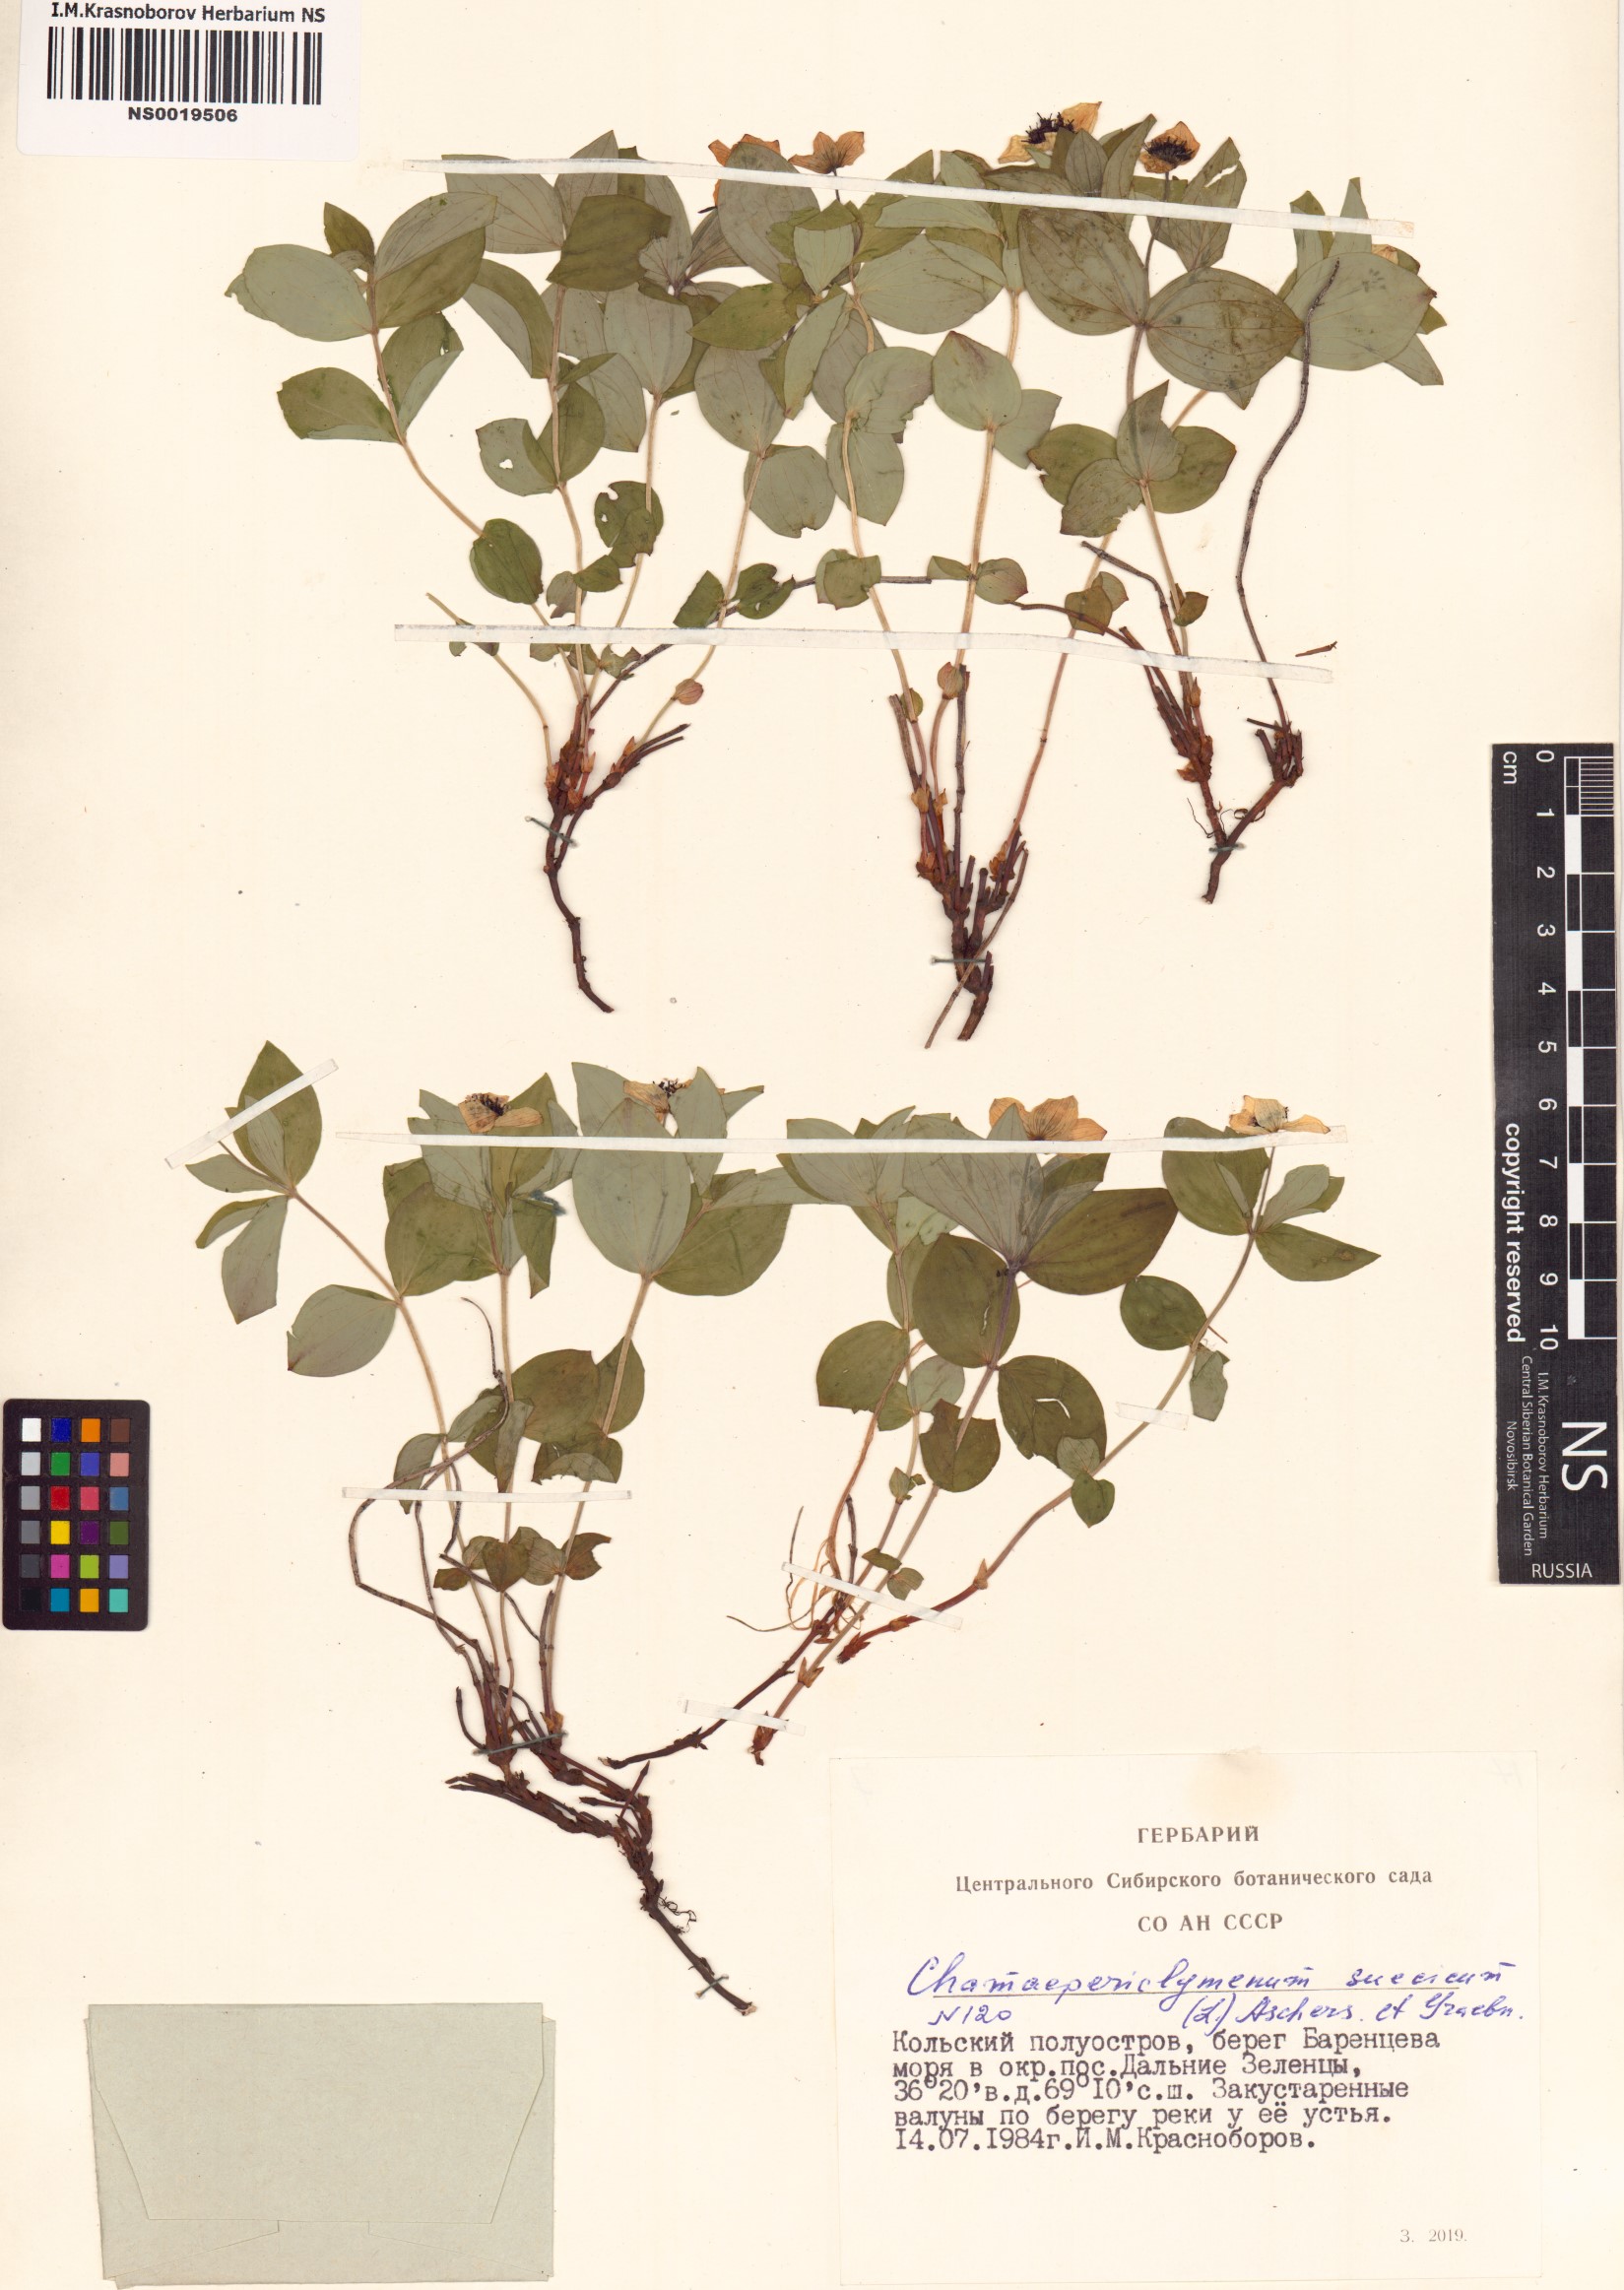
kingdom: Plantae
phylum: Tracheophyta
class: Magnoliopsida
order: Cornales
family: Cornaceae
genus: Cornus
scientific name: Cornus suecica
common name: Dwarf cornel
